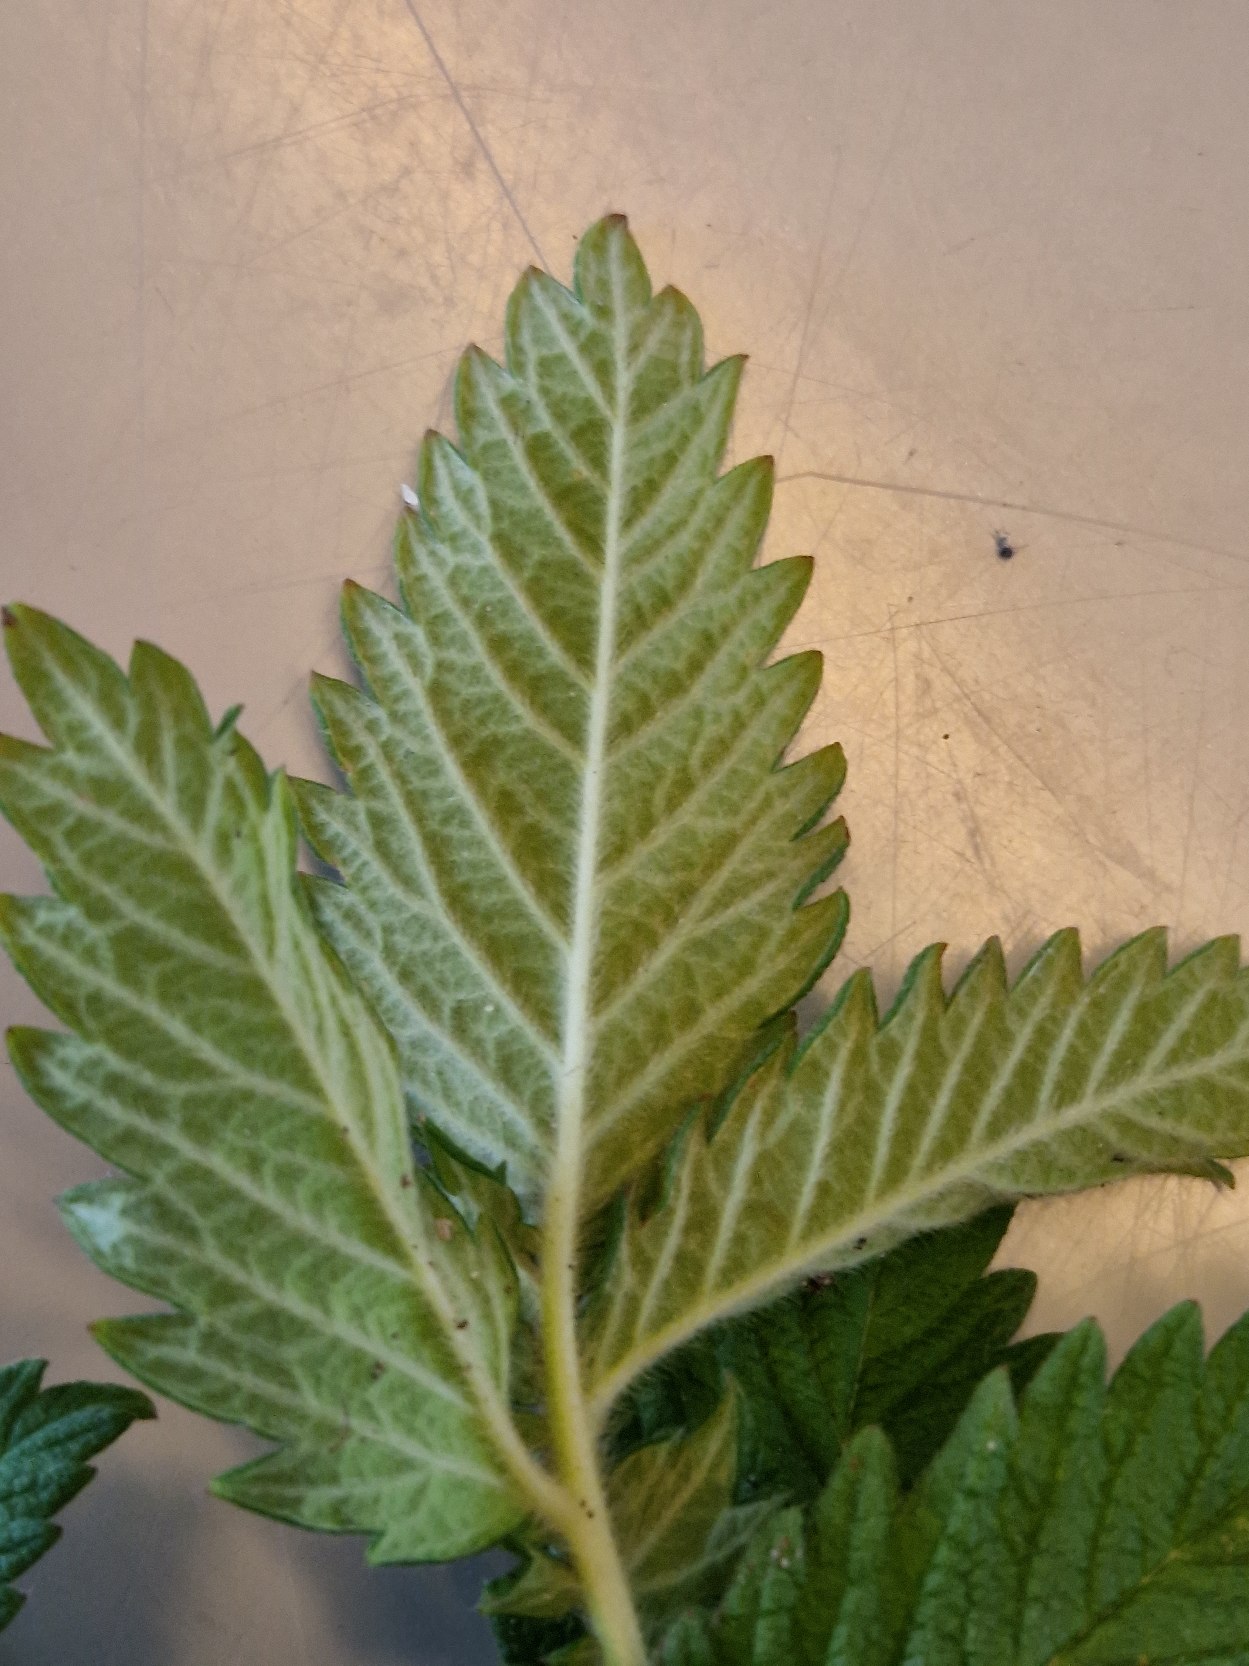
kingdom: Plantae
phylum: Tracheophyta
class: Magnoliopsida
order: Rosales
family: Rosaceae
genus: Agrimonia
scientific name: Agrimonia eupatoria
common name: Almindelig agermåne
